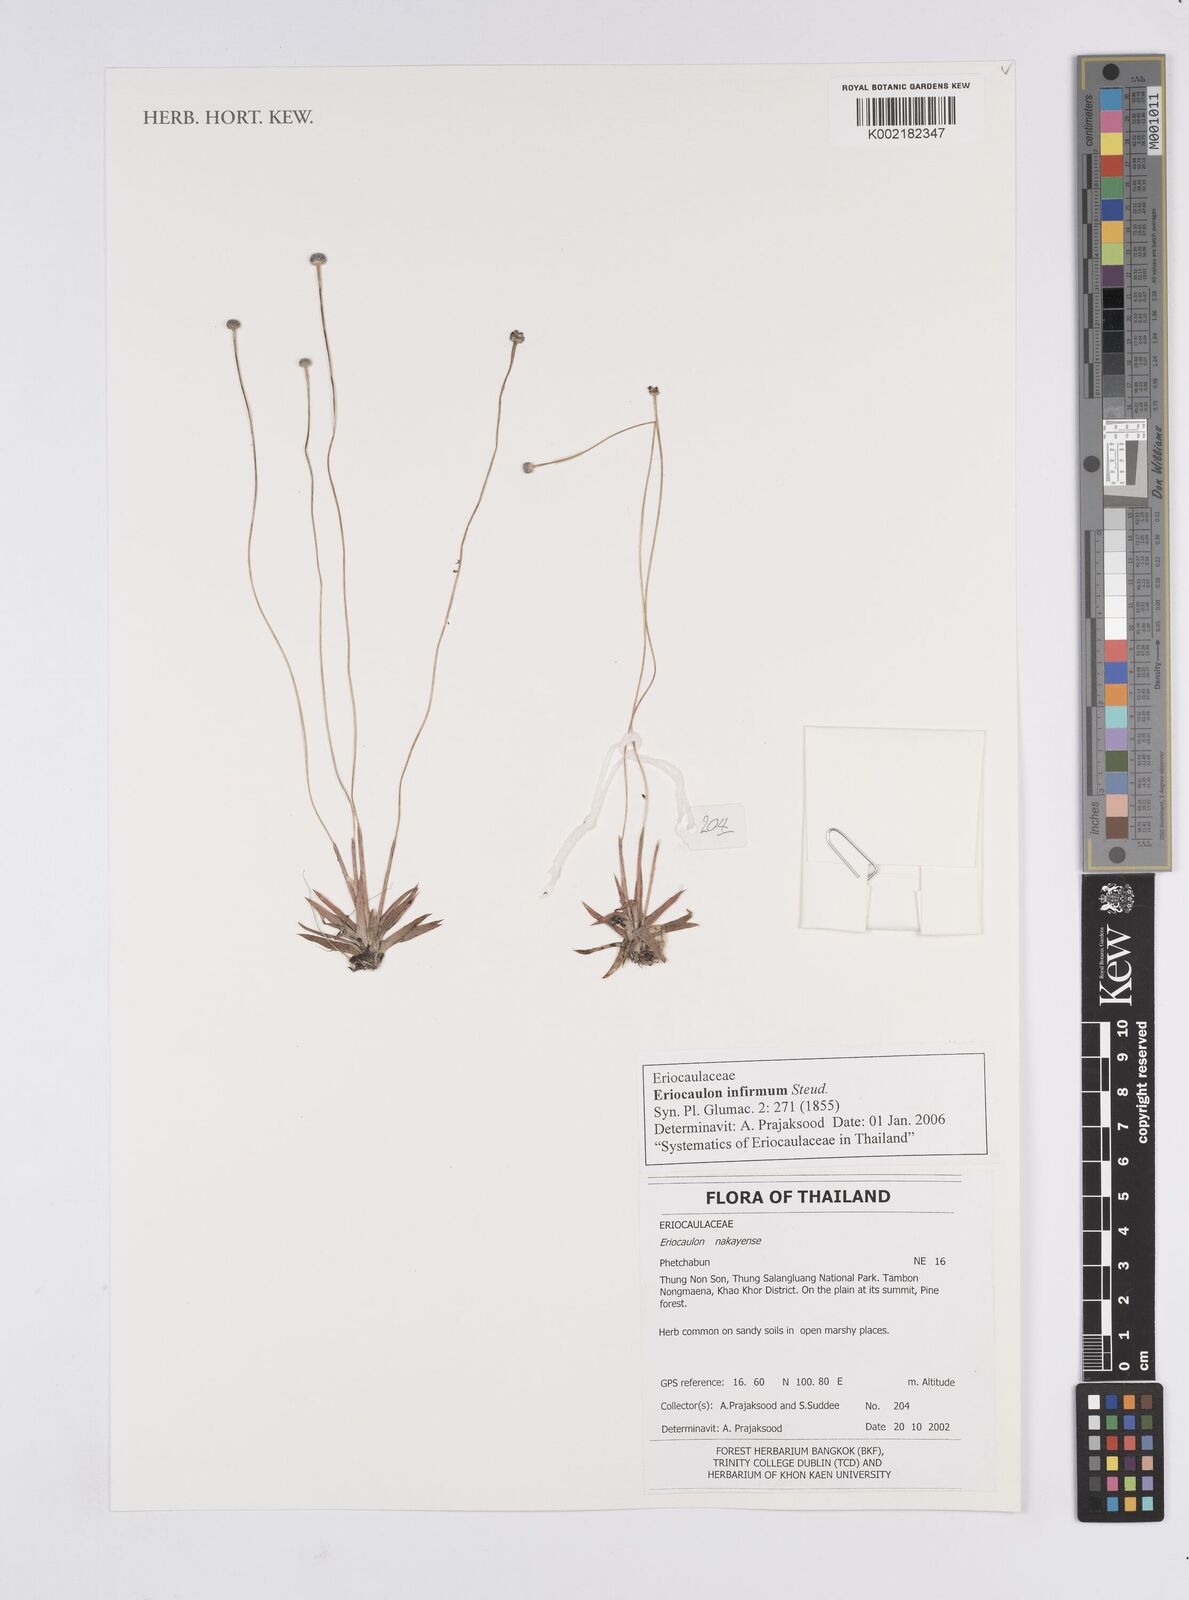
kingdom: Plantae
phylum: Tracheophyta
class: Liliopsida
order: Poales
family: Eriocaulaceae
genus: Eriocaulon
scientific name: Eriocaulon infirmum
